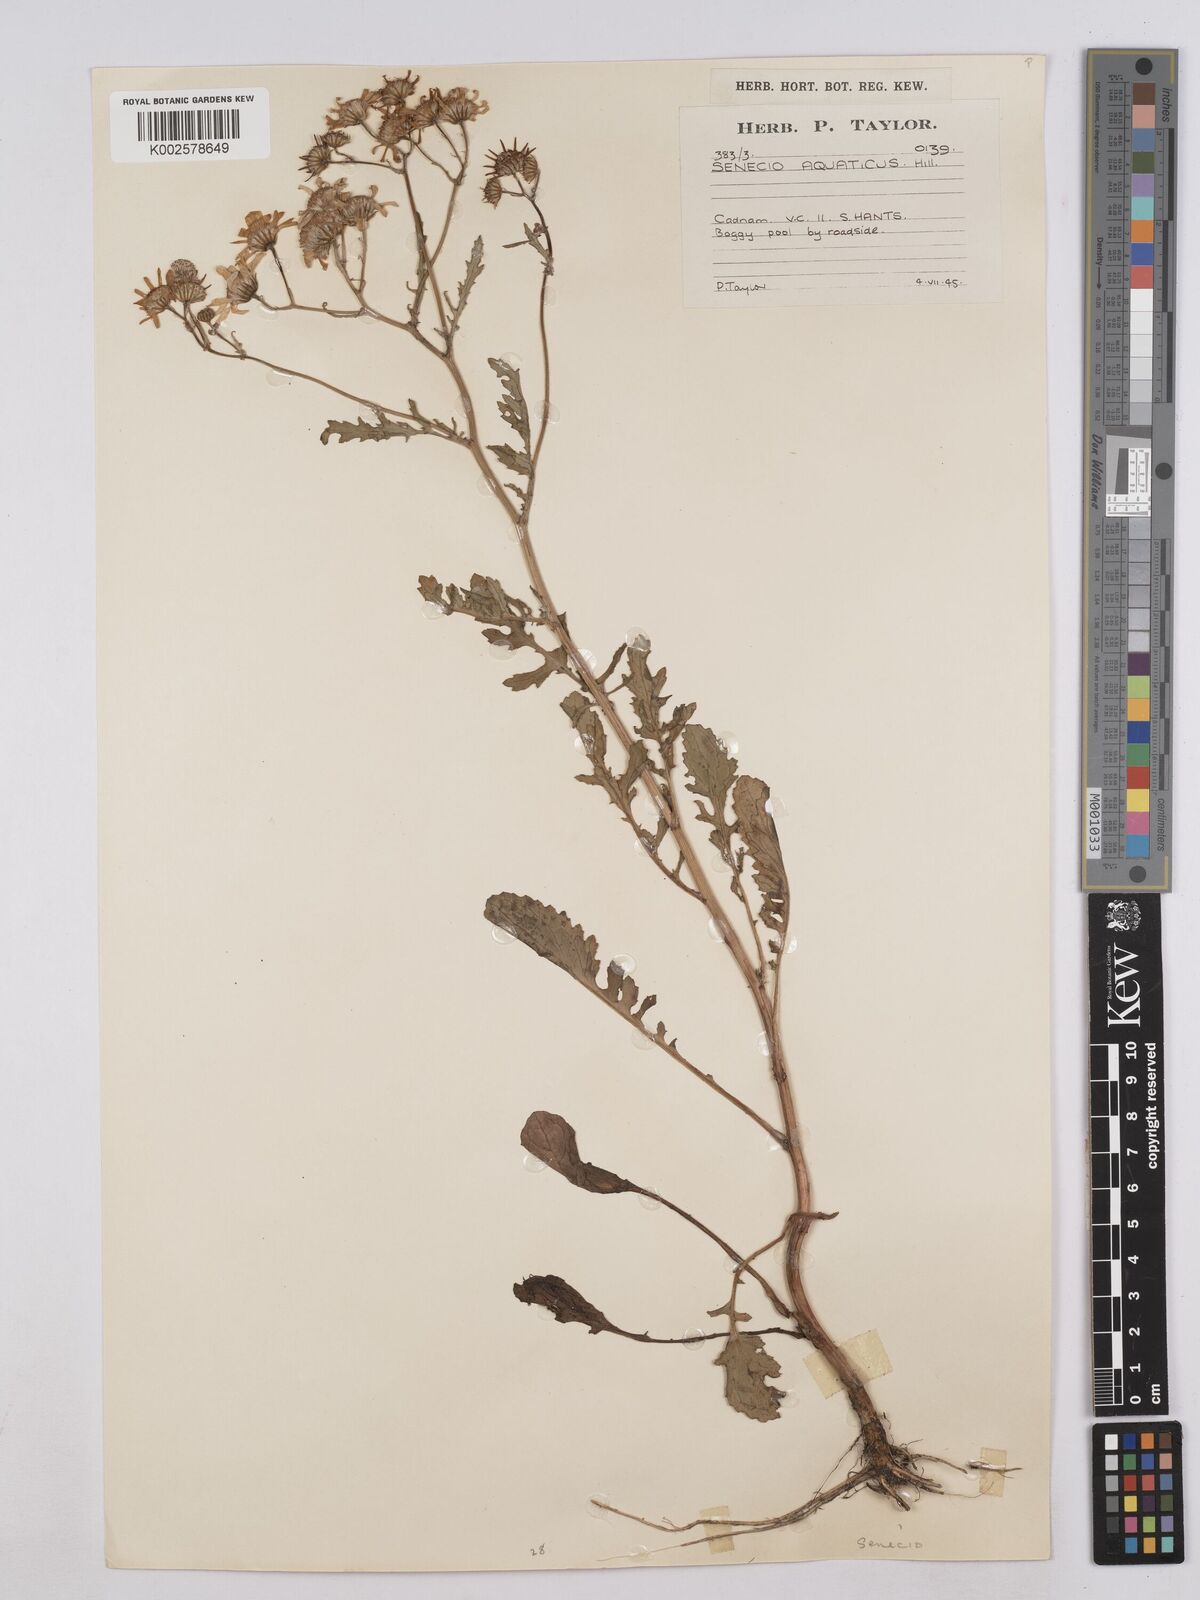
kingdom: Plantae
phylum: Tracheophyta
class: Magnoliopsida
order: Asterales
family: Asteraceae
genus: Jacobaea
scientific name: Jacobaea aquatica
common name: Water ragwort
